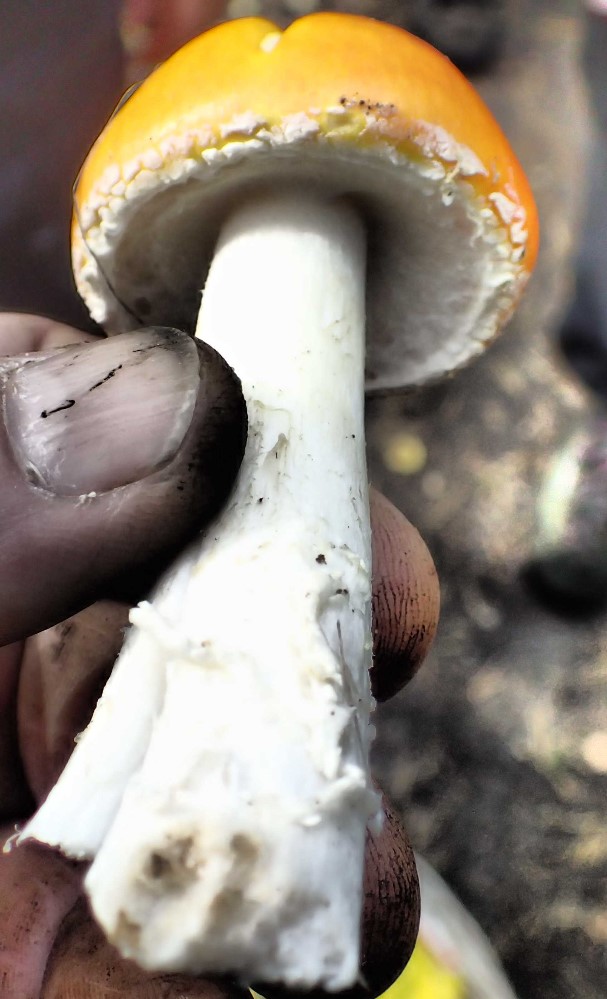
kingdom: Fungi
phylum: Basidiomycota
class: Agaricomycetes
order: Agaricales
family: Amanitaceae
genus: Amanita
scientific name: Amanita muscaria
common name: rød fluesvamp
